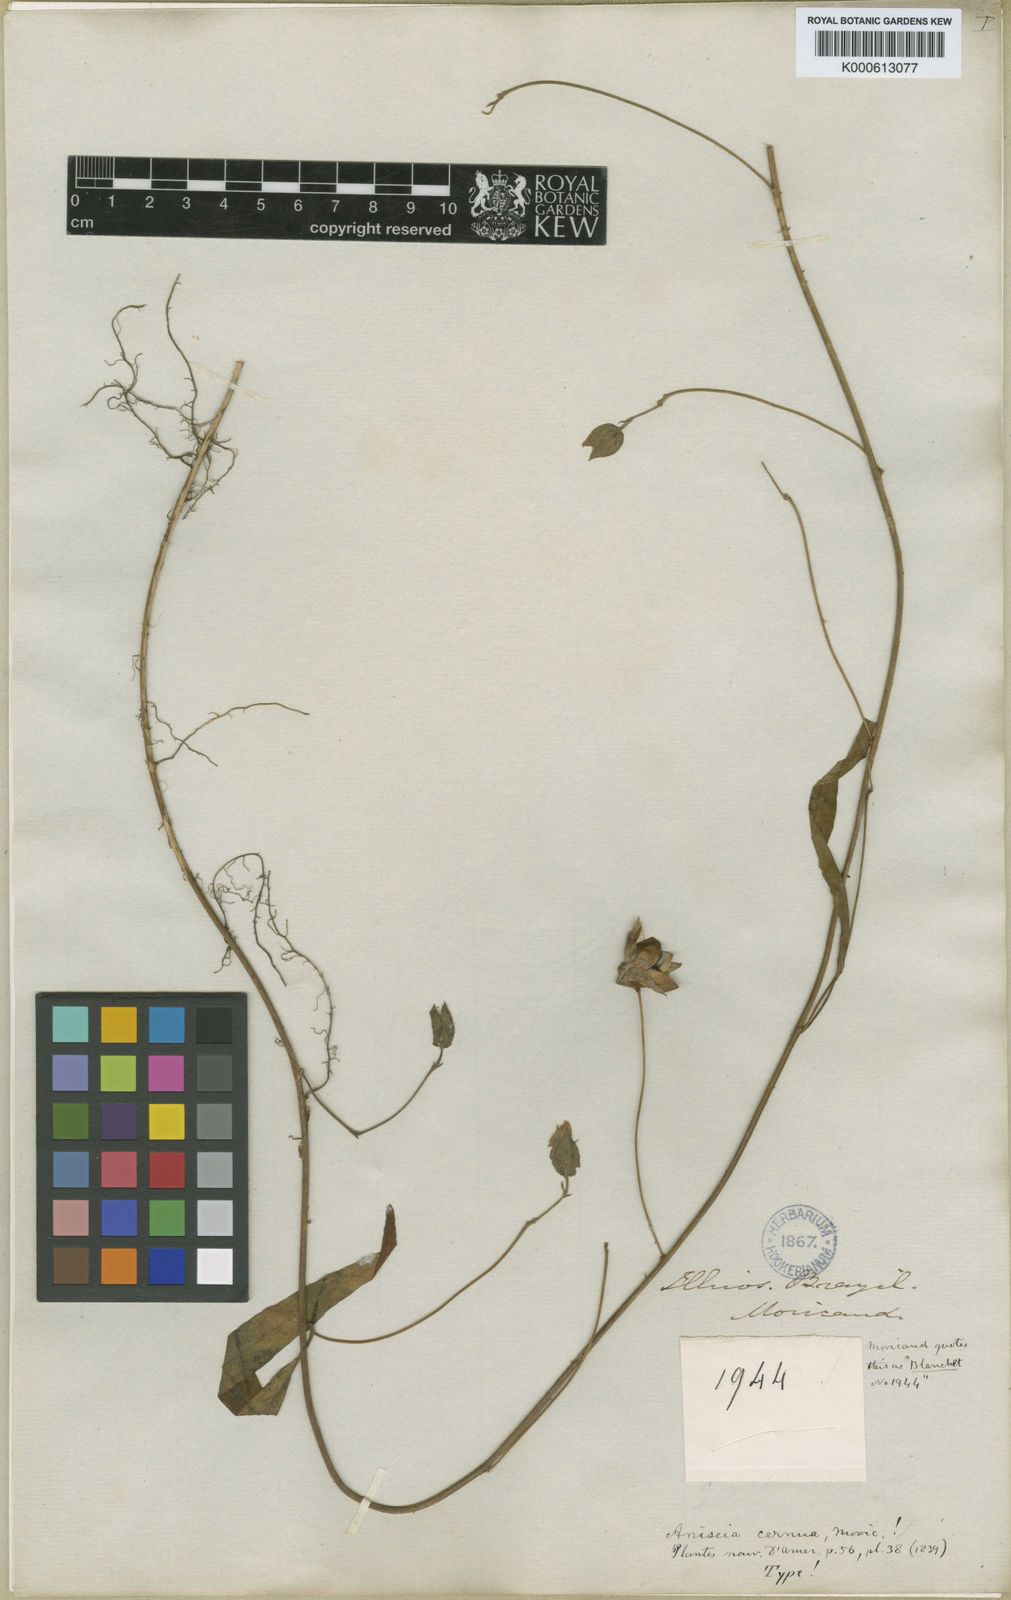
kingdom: Plantae
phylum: Tracheophyta
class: Magnoliopsida
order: Solanales
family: Convolvulaceae
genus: Aniseia
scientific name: Aniseia martinicensis
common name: Kulayadambu
